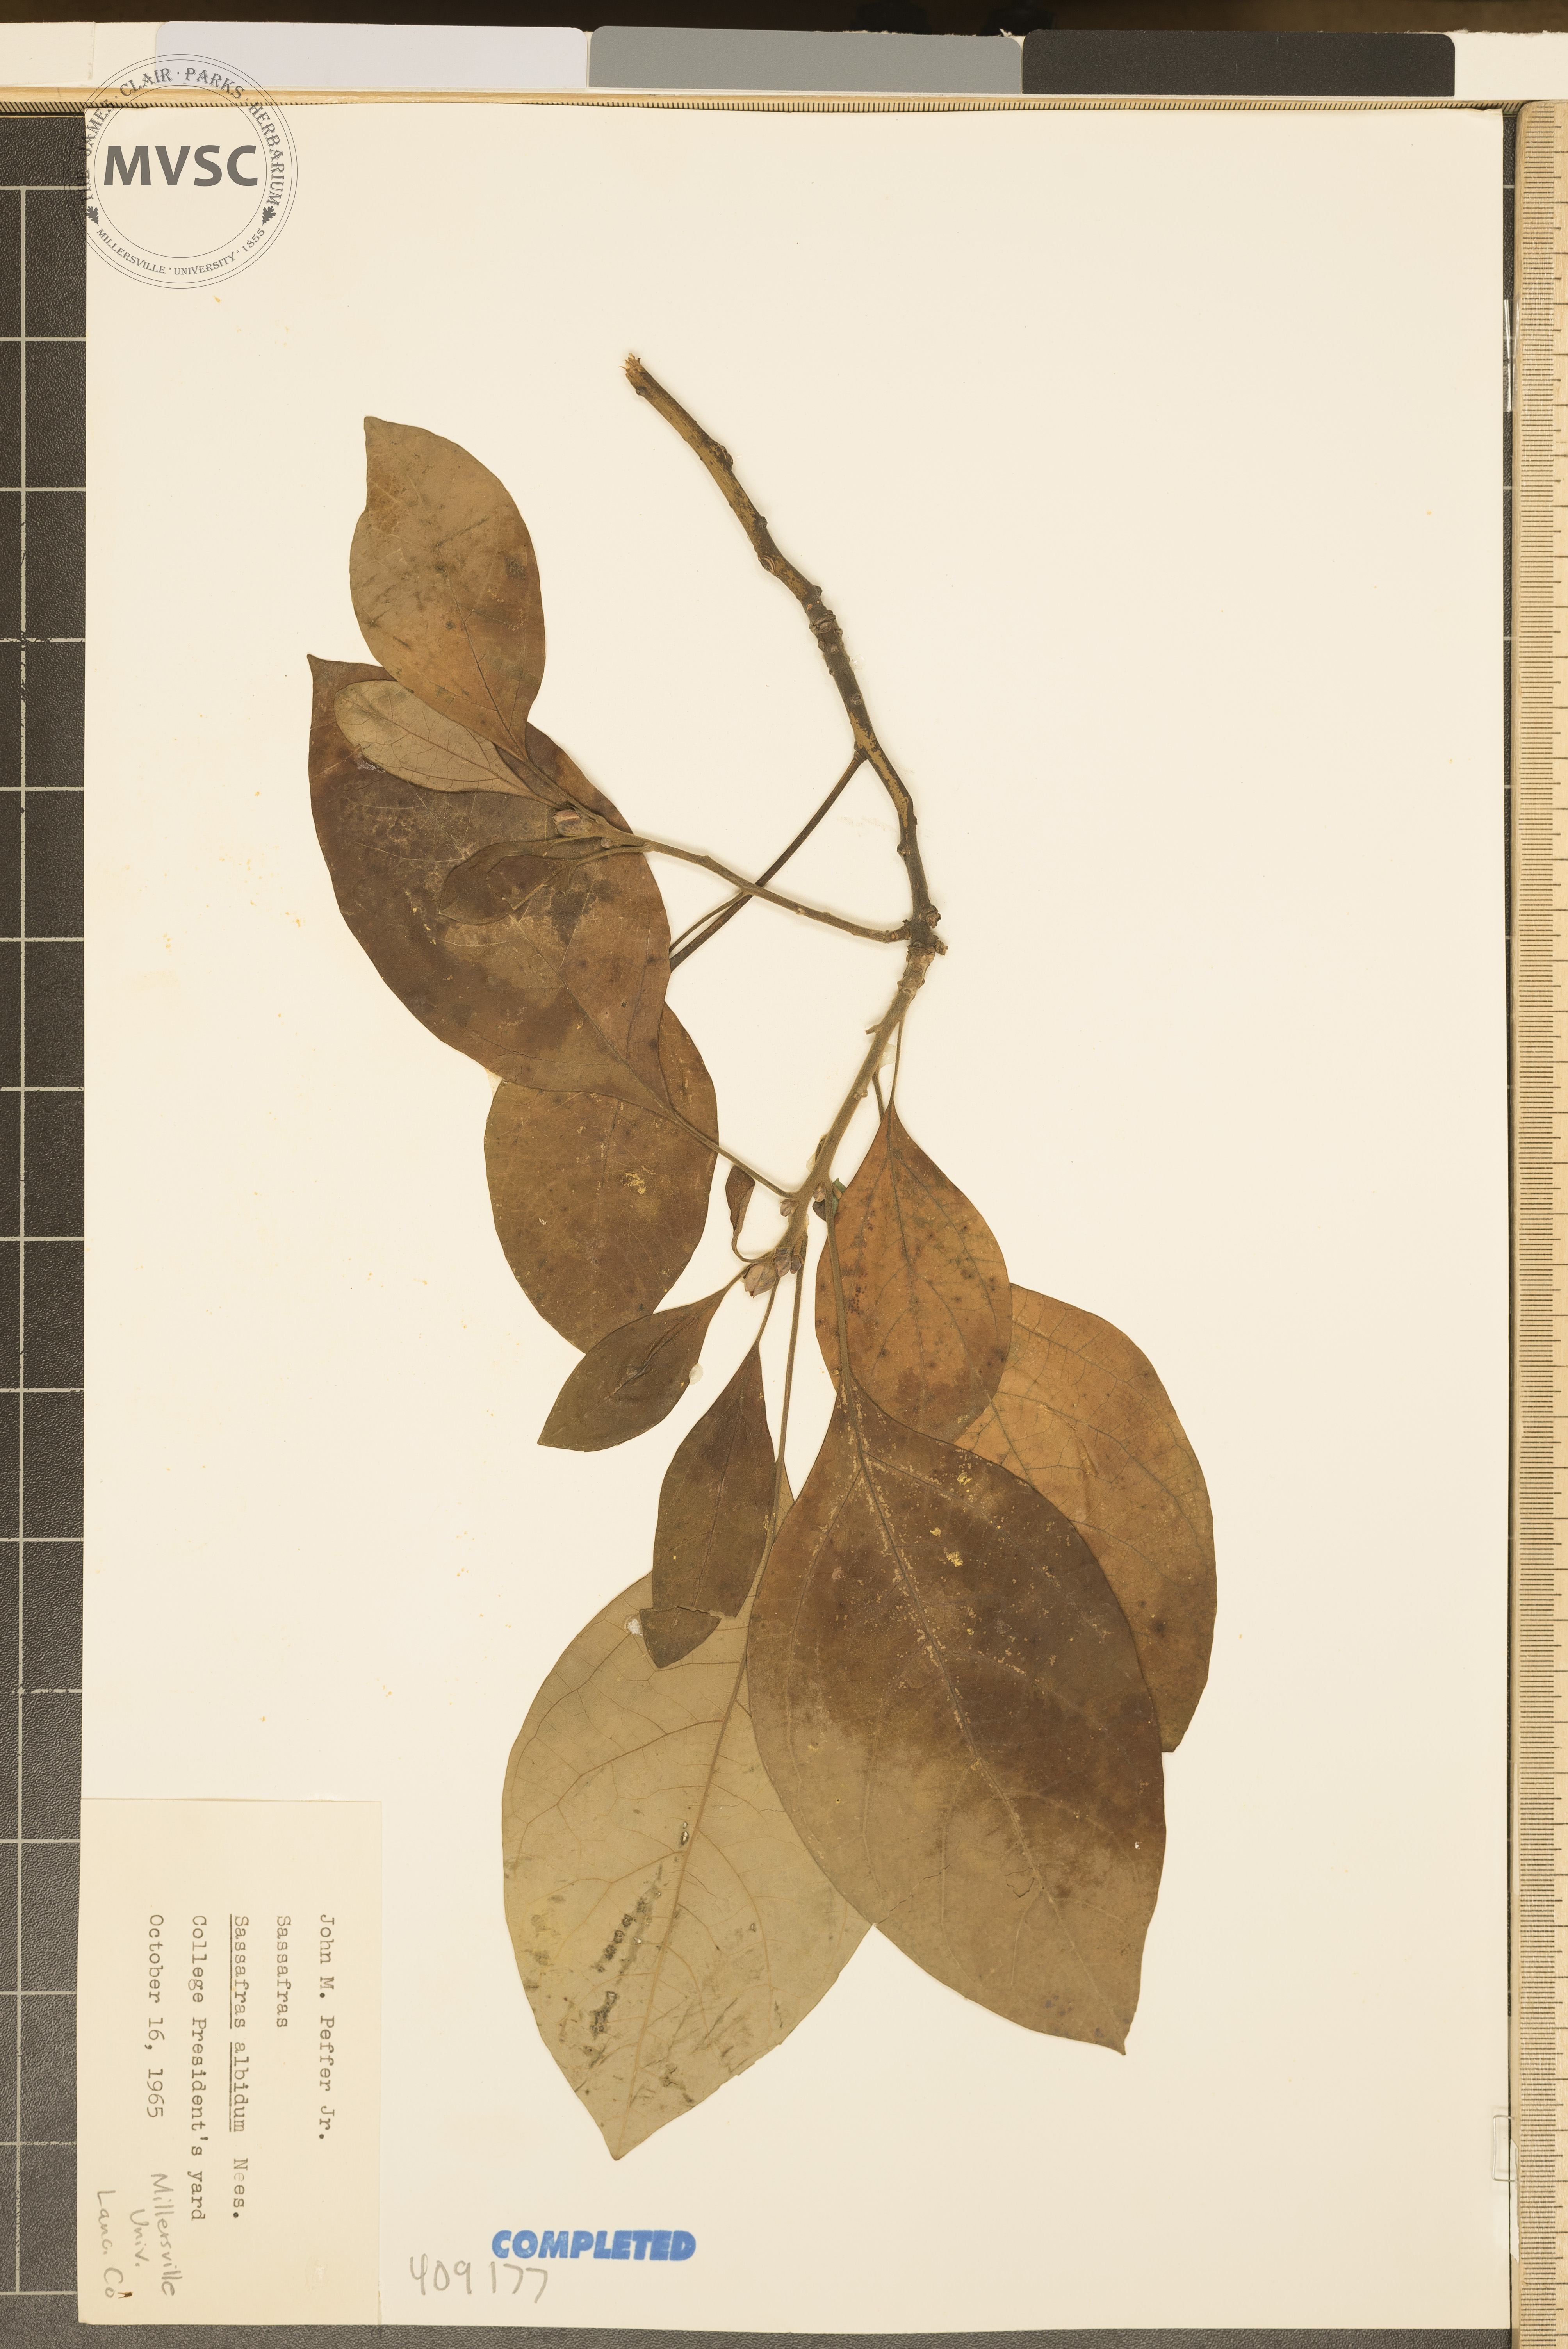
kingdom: Plantae
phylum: Tracheophyta
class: Magnoliopsida
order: Laurales
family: Lauraceae
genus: Sassafras
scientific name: Sassafras albidum
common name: Sassafras
